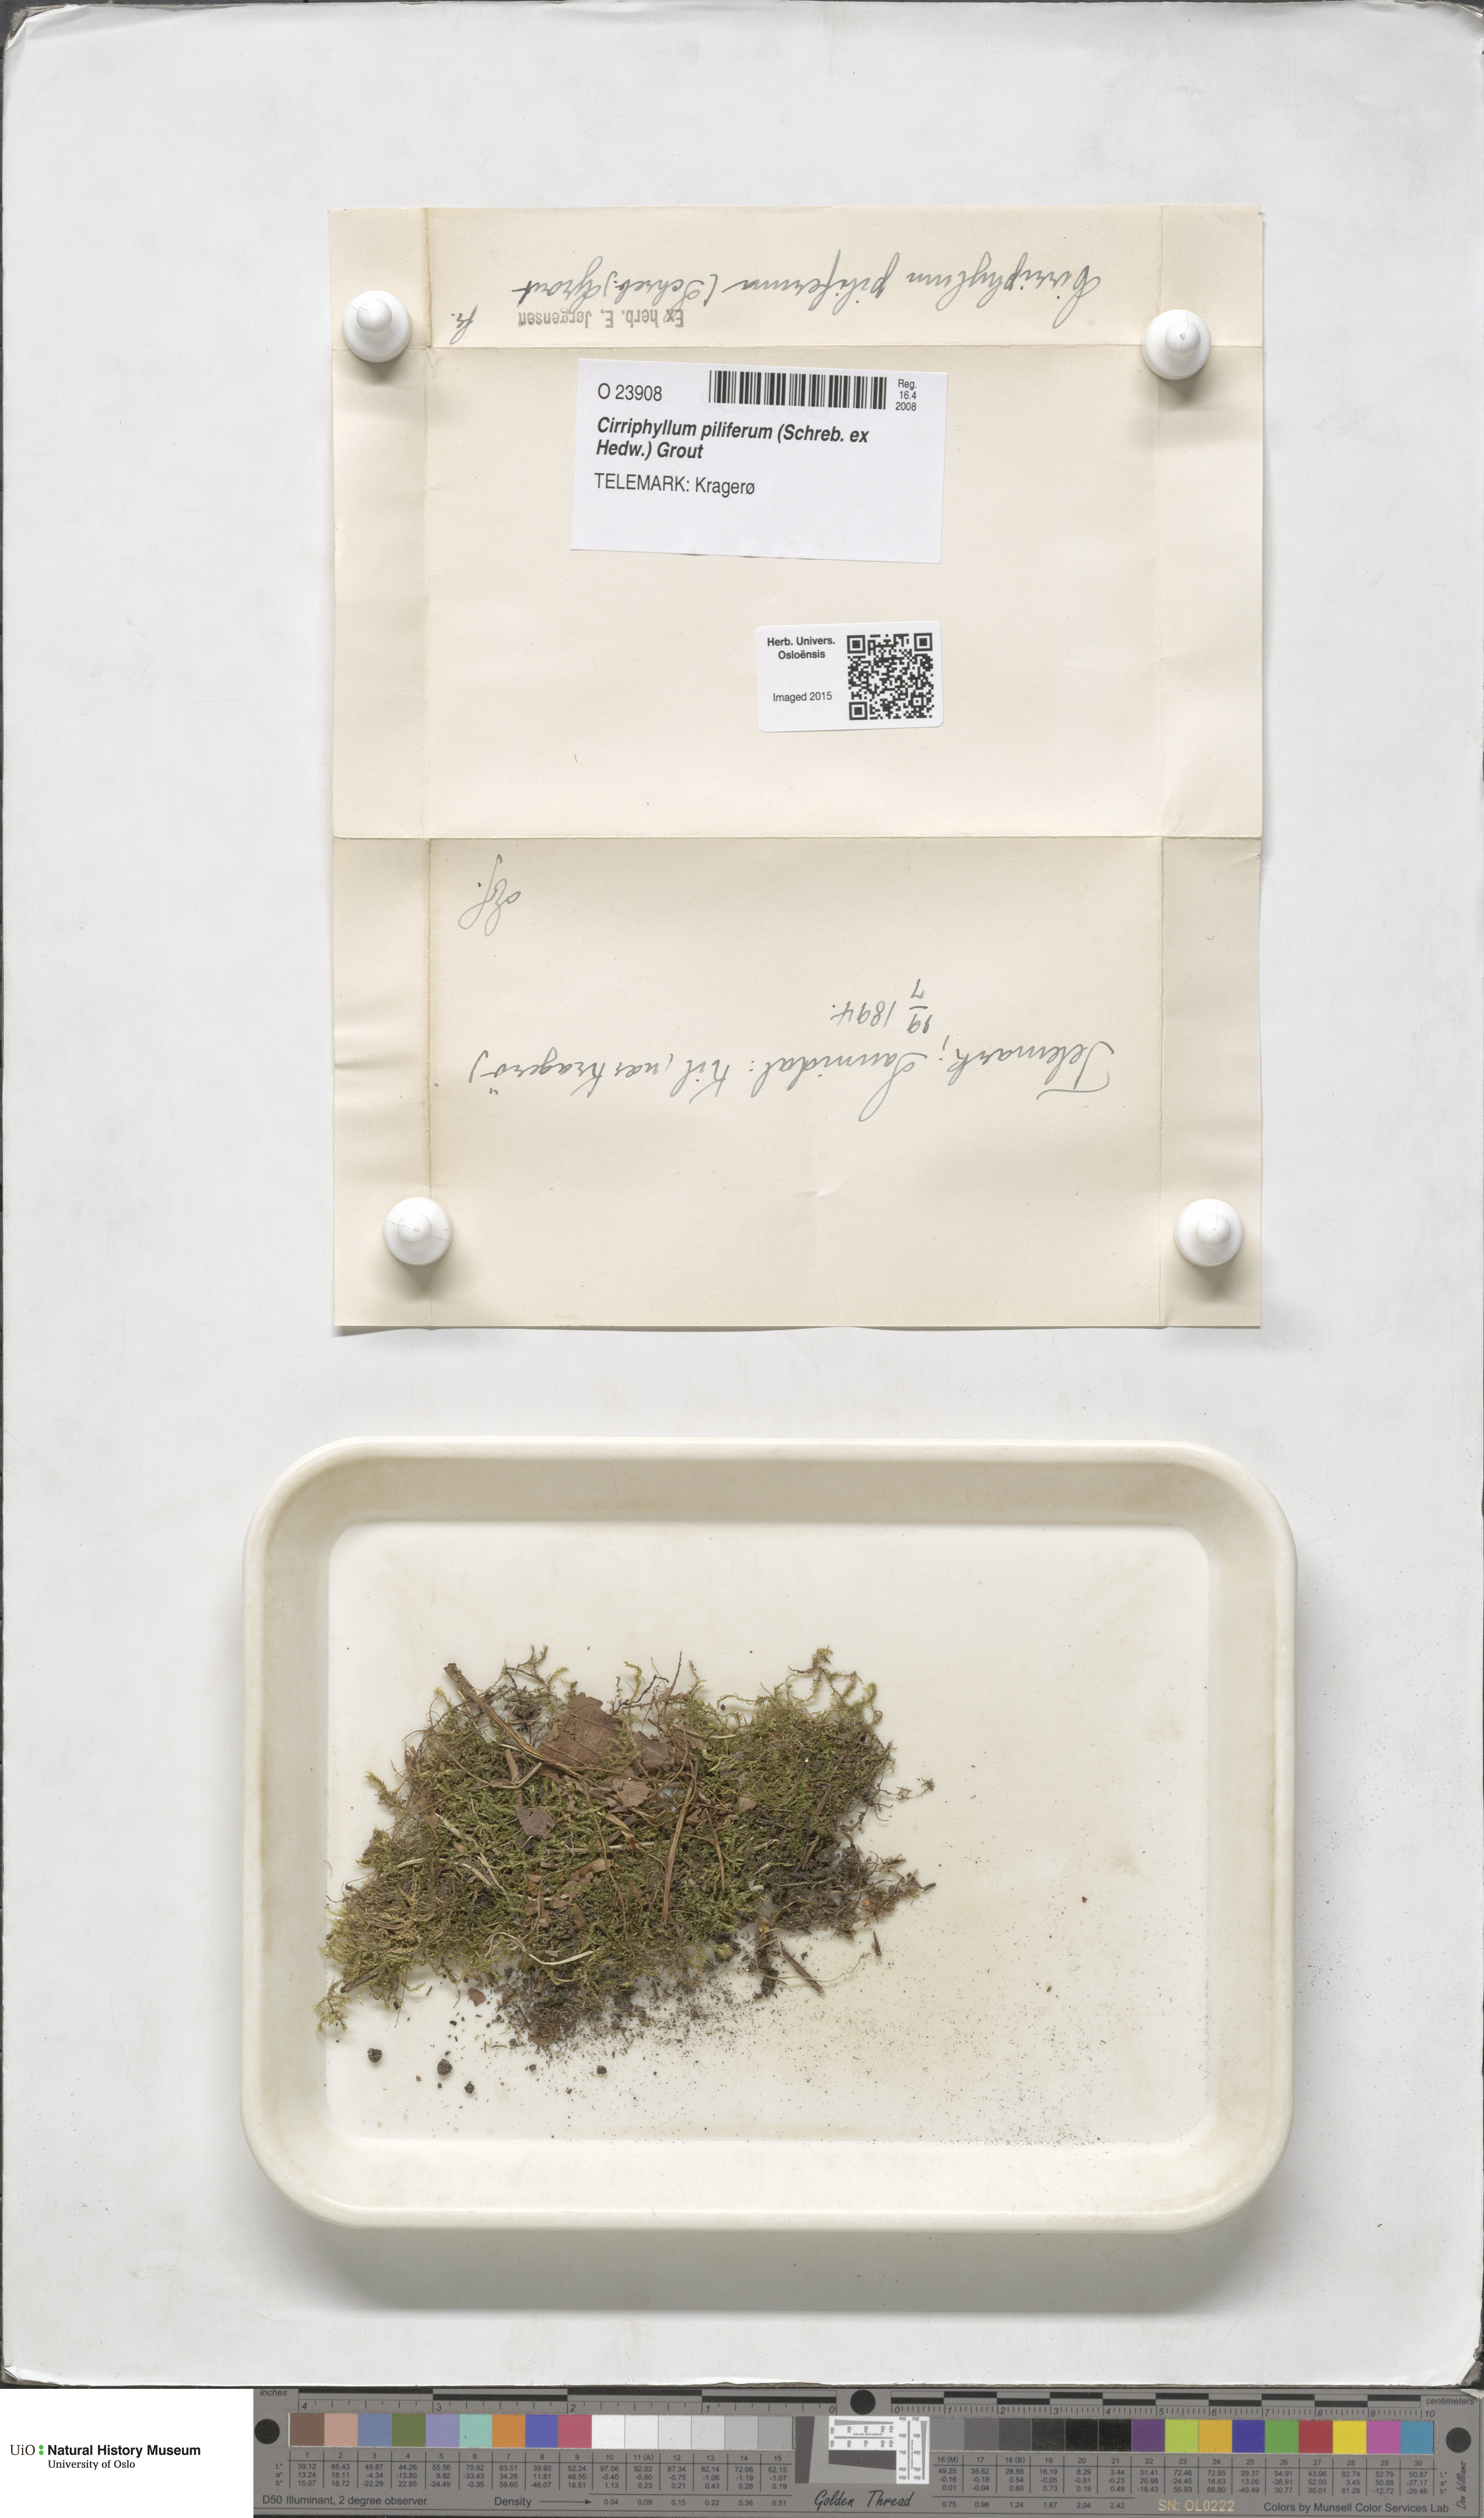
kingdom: Plantae
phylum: Bryophyta
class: Bryopsida
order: Hypnales
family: Brachytheciaceae
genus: Cirriphyllum
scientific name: Cirriphyllum piliferum
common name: Hair-pointed moss
